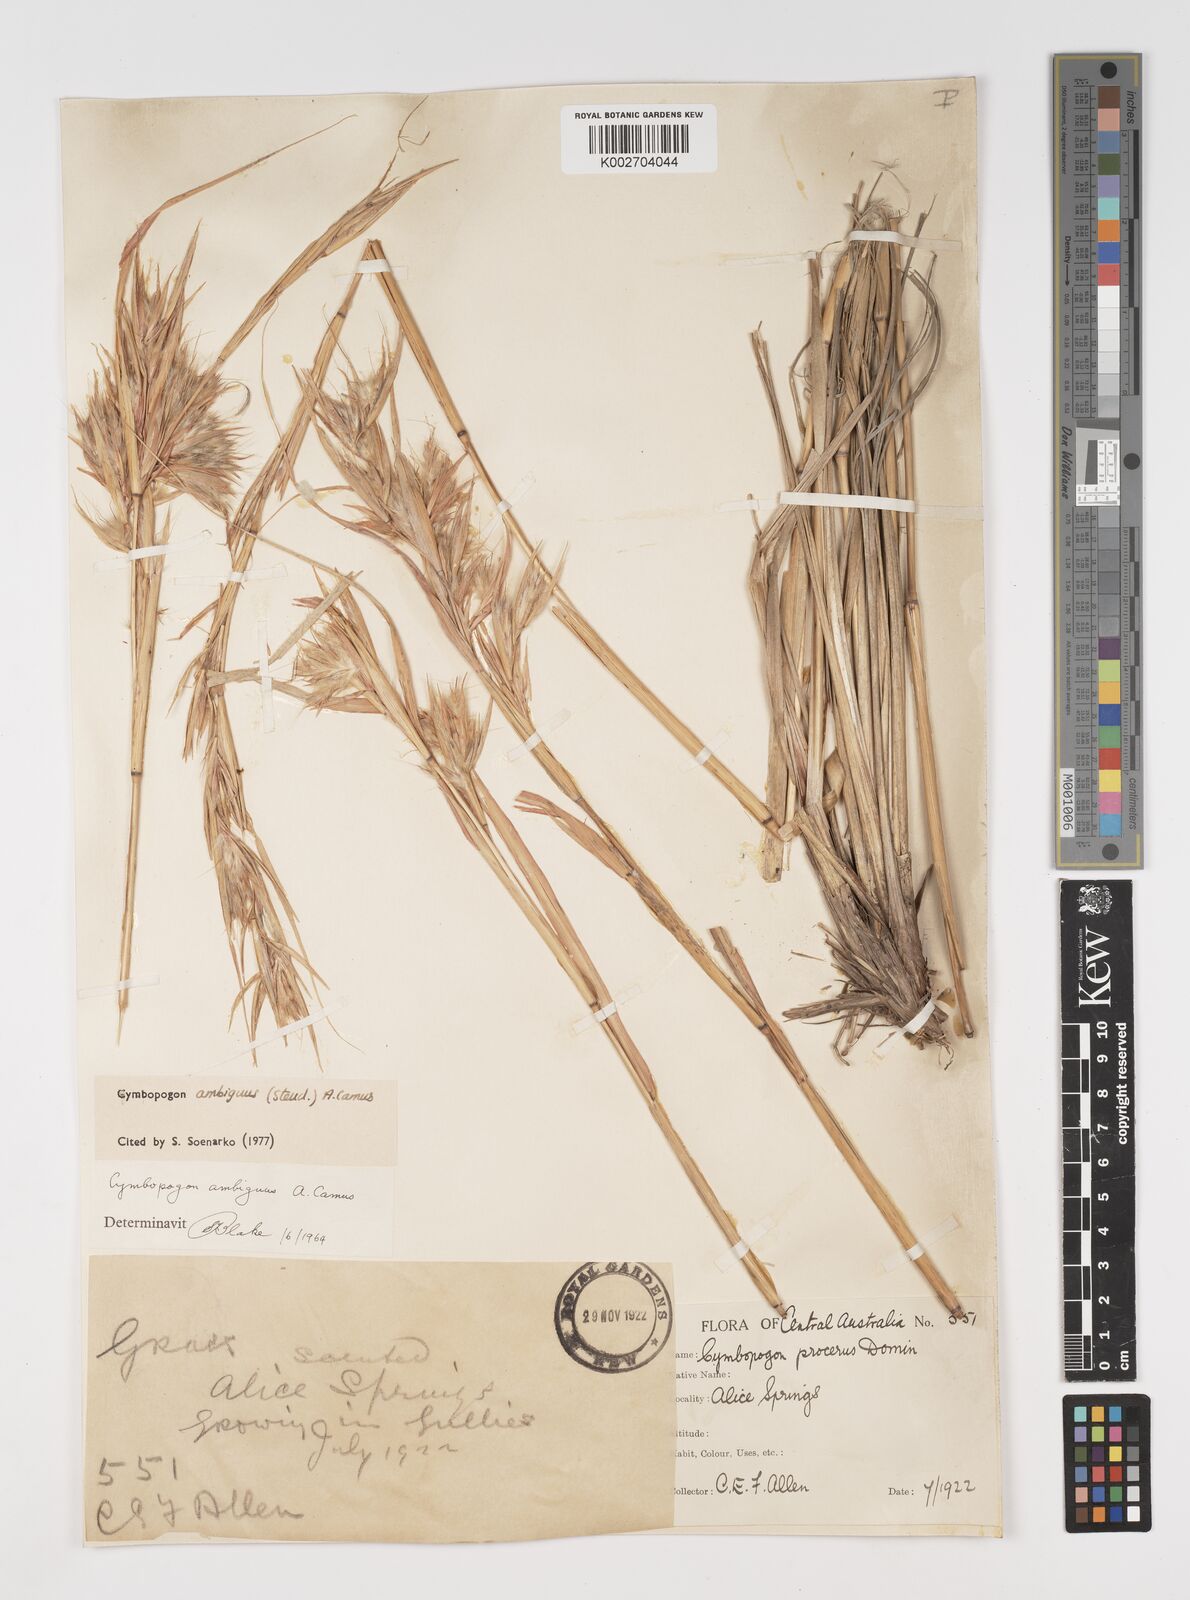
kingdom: Plantae
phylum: Tracheophyta
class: Liliopsida
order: Poales
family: Poaceae
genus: Cymbopogon
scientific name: Cymbopogon ambiguus
